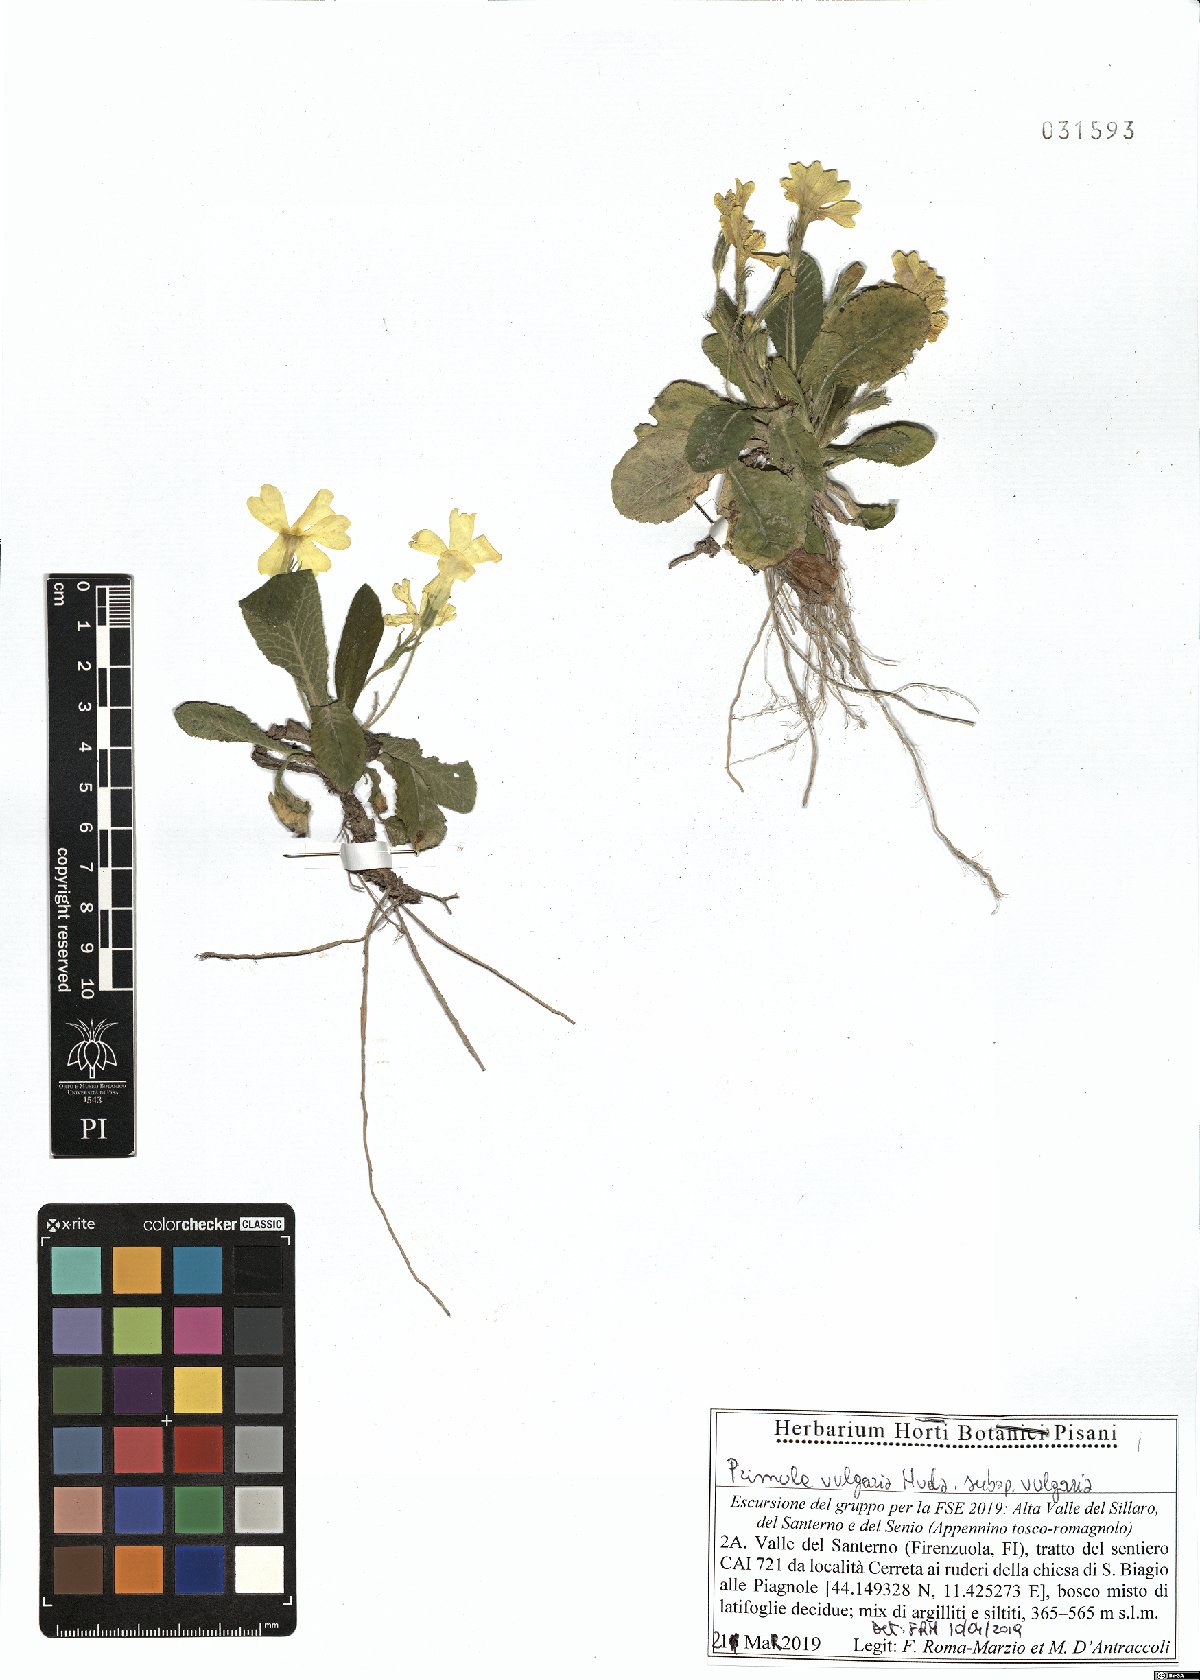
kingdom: Plantae
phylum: Tracheophyta
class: Magnoliopsida
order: Ericales
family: Primulaceae
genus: Primula
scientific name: Primula vulgaris
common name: Primrose
